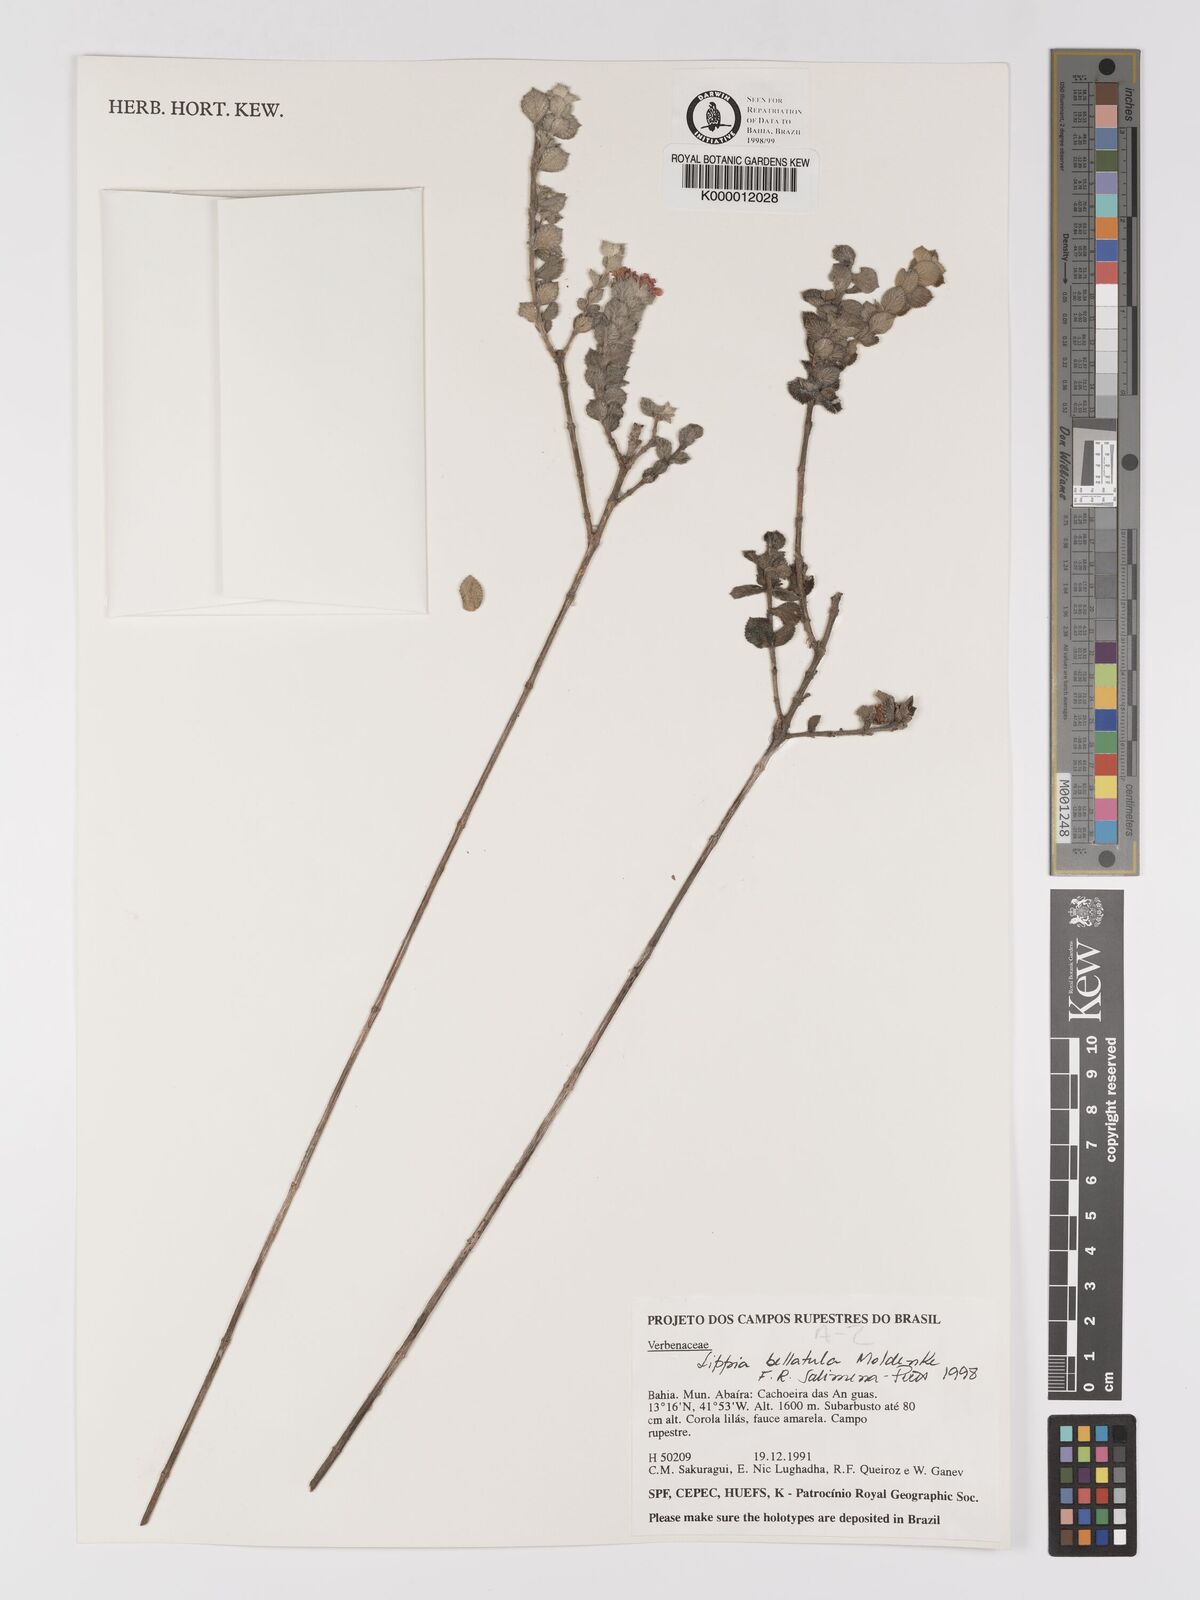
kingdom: Plantae
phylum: Tracheophyta
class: Magnoliopsida
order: Lamiales
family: Verbenaceae
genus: Lippia
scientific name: Lippia bellatula
